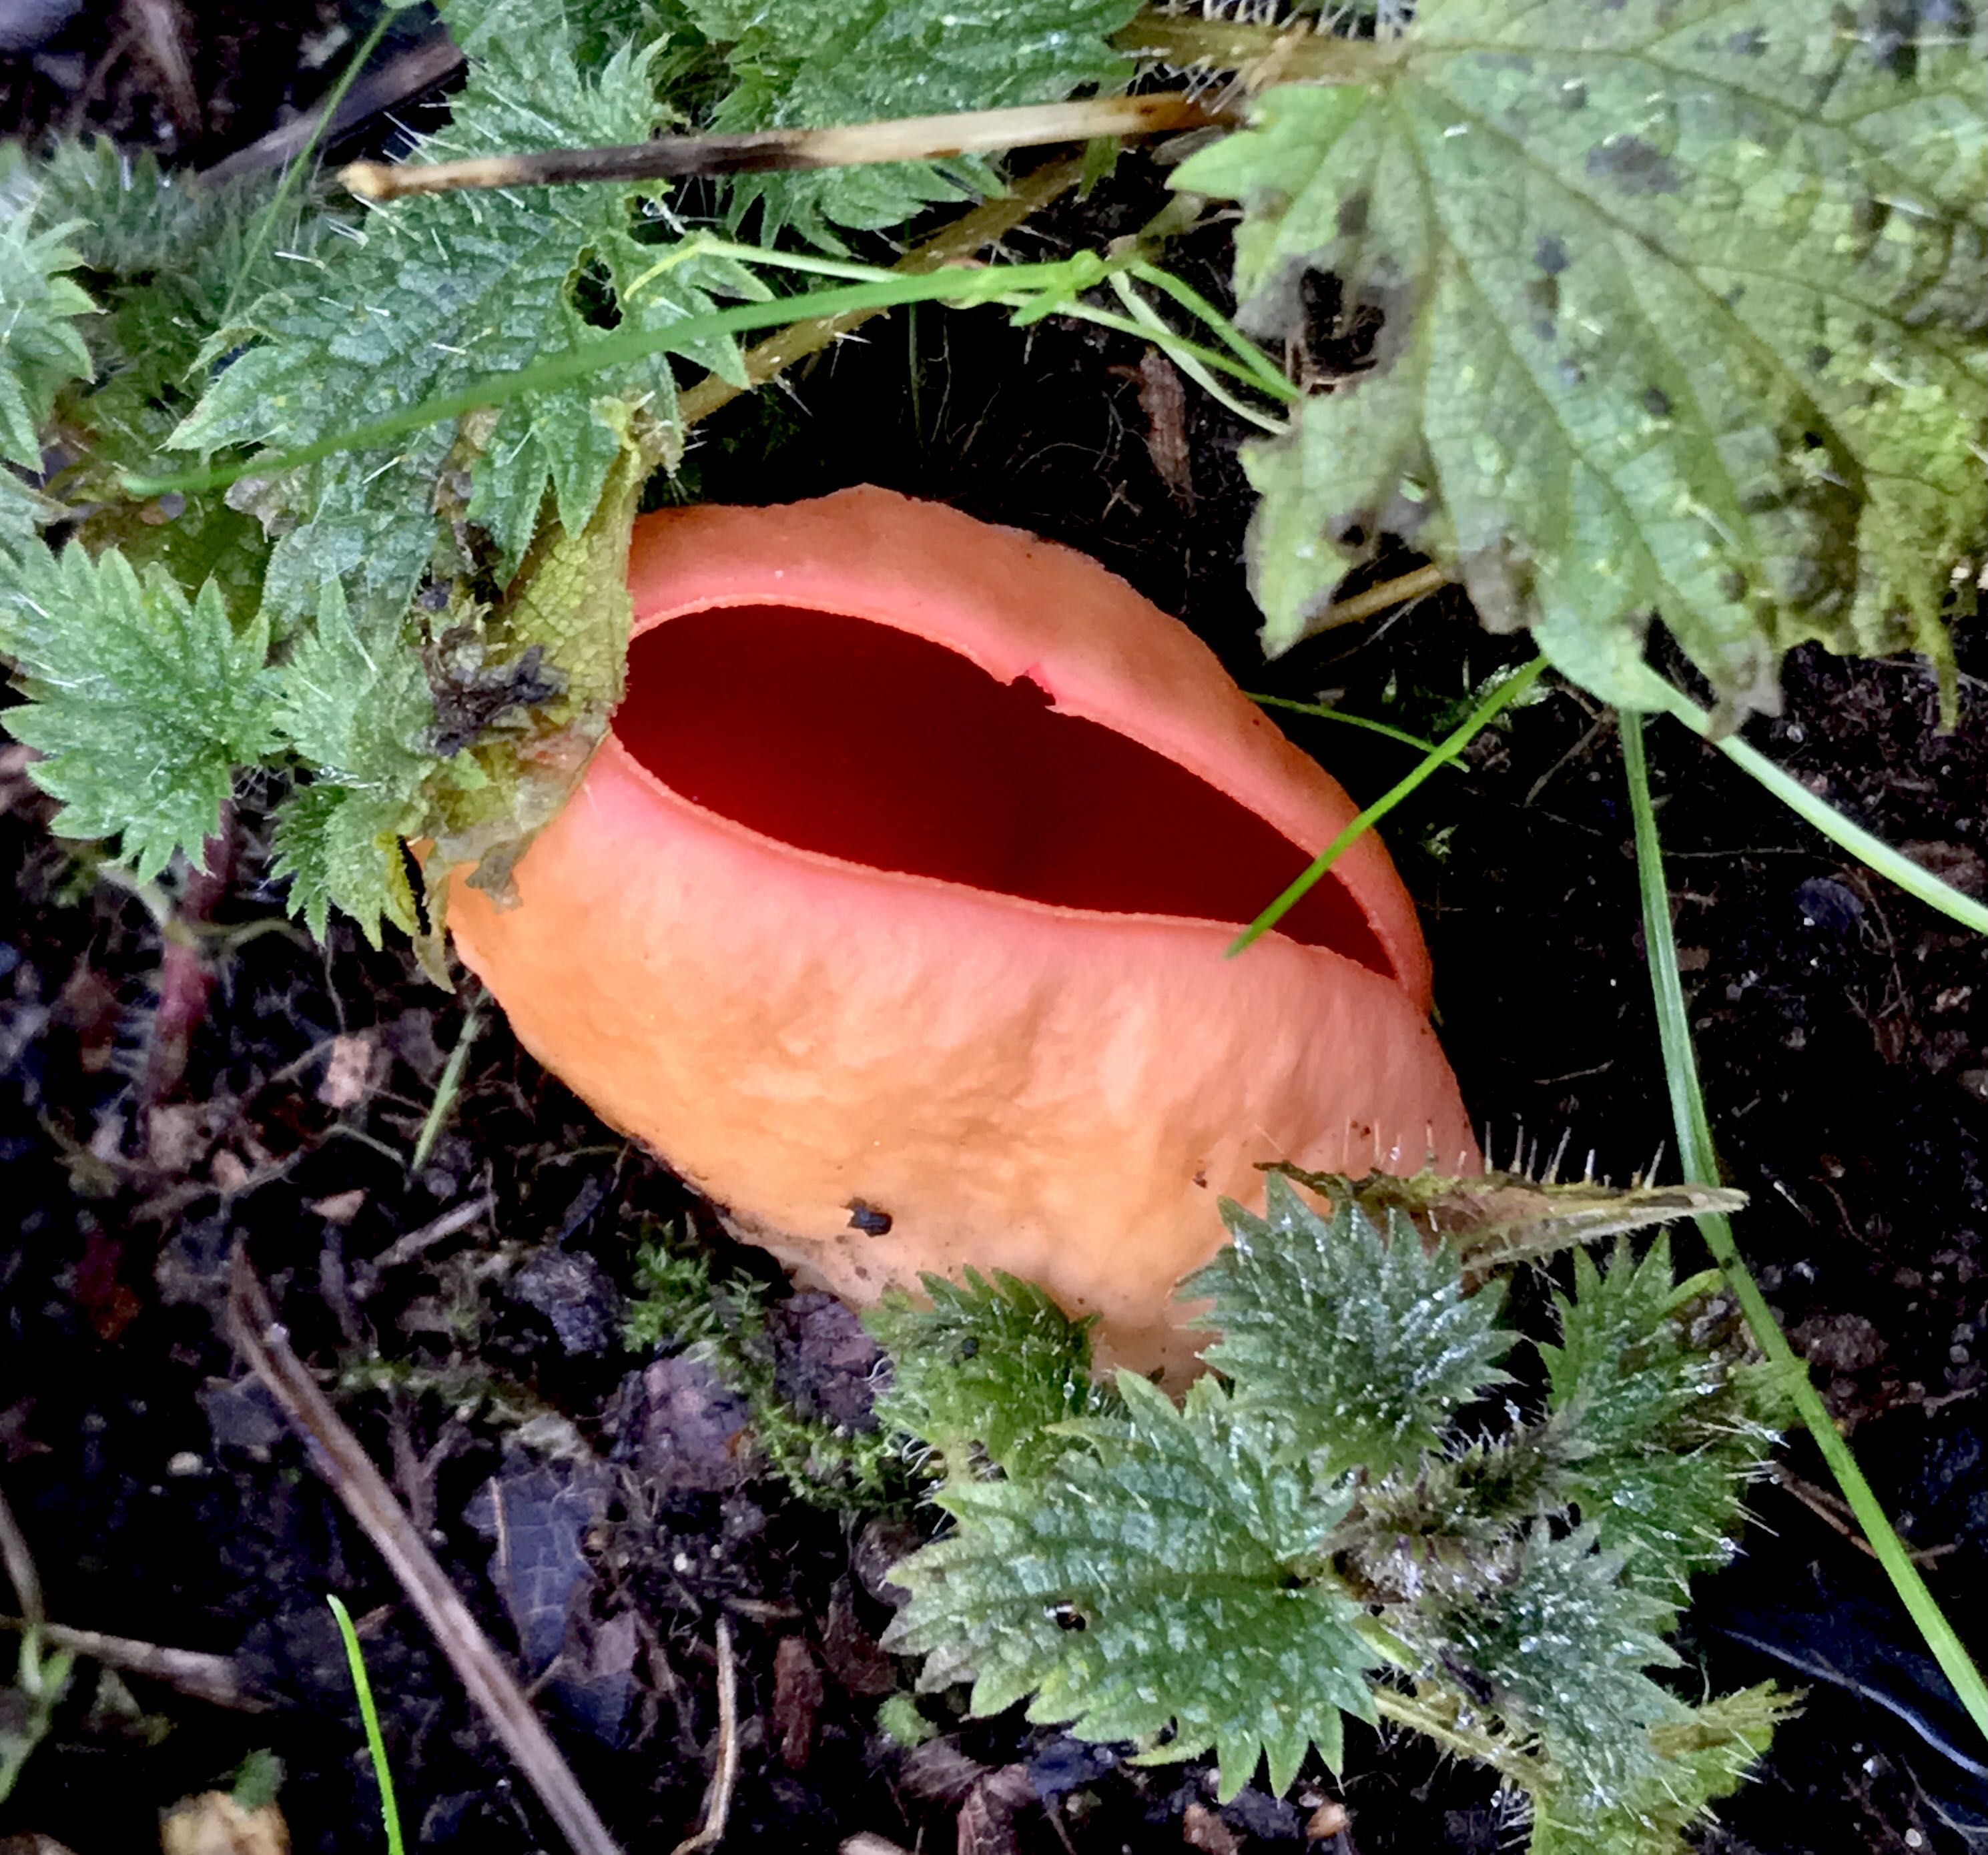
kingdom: Fungi
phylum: Ascomycota
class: Pezizomycetes
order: Pezizales
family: Sarcoscyphaceae
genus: Sarcoscypha
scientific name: Sarcoscypha austriaca
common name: krølhåret pragtbæger
